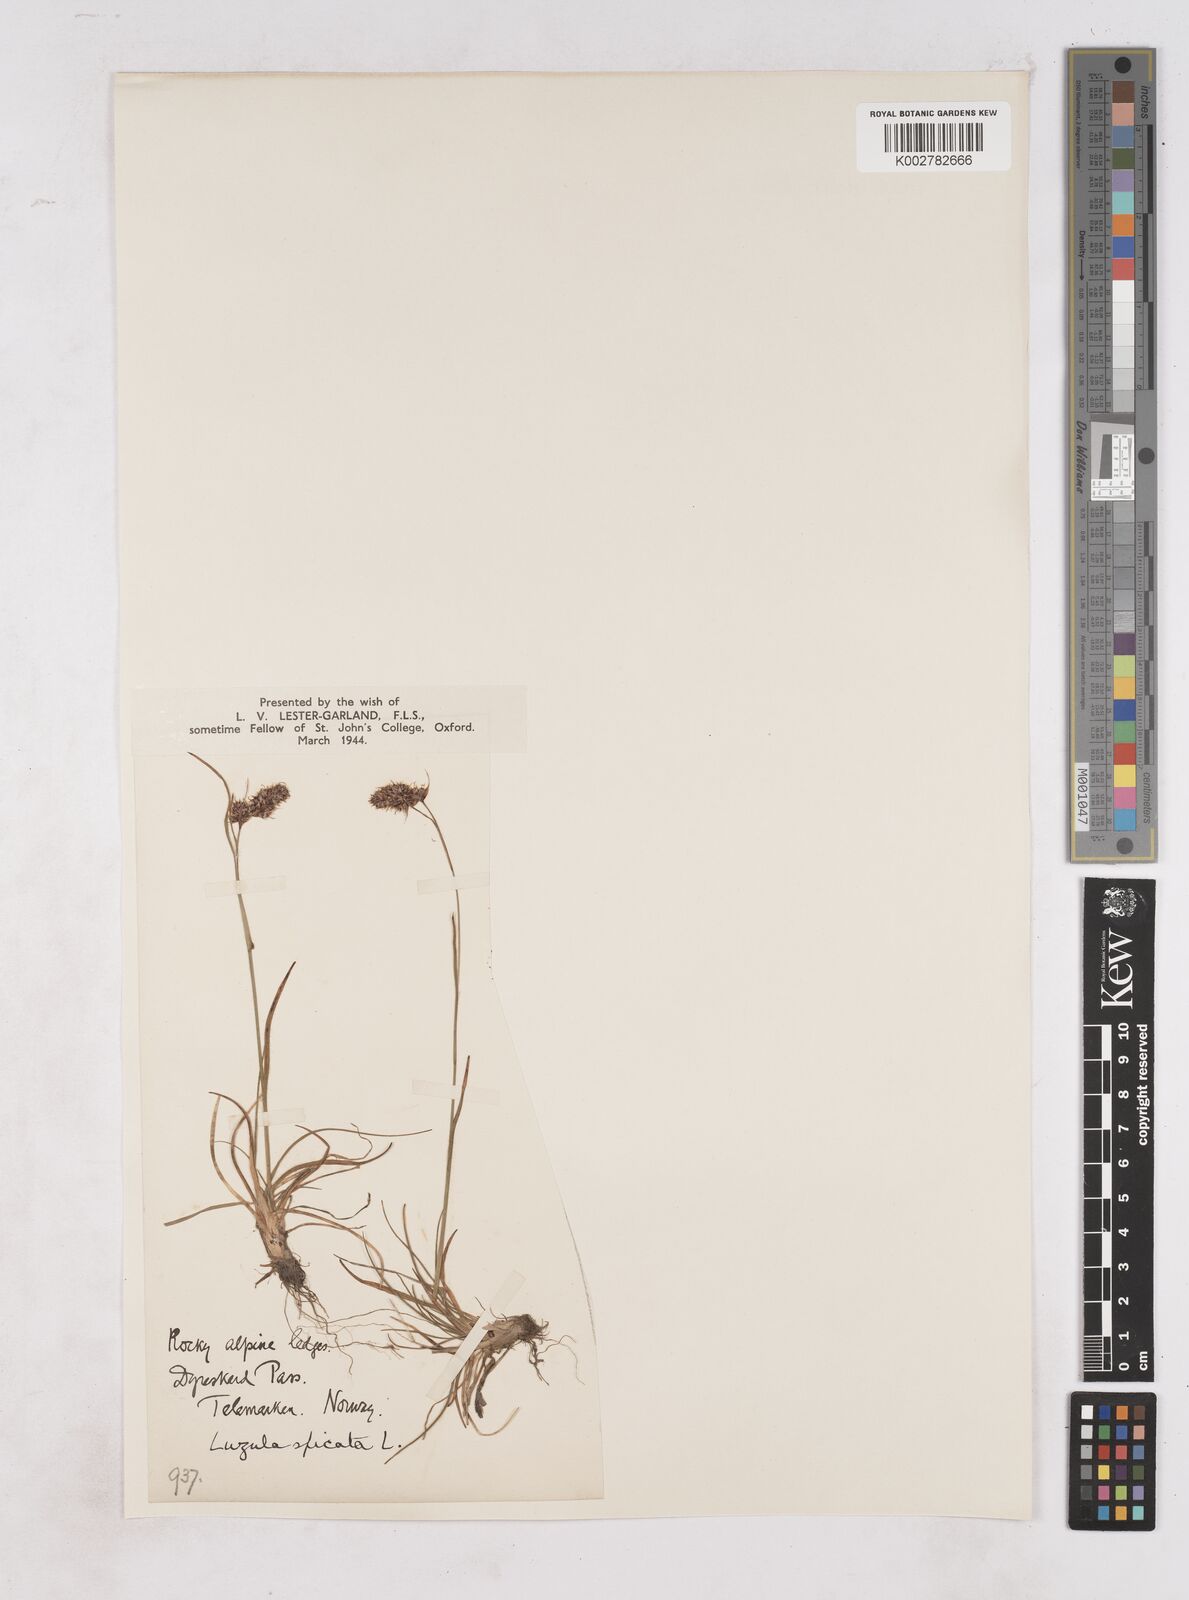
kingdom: Plantae
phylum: Tracheophyta
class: Liliopsida
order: Poales
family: Juncaceae
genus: Luzula
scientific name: Luzula spicata
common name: Spiked wood-rush
